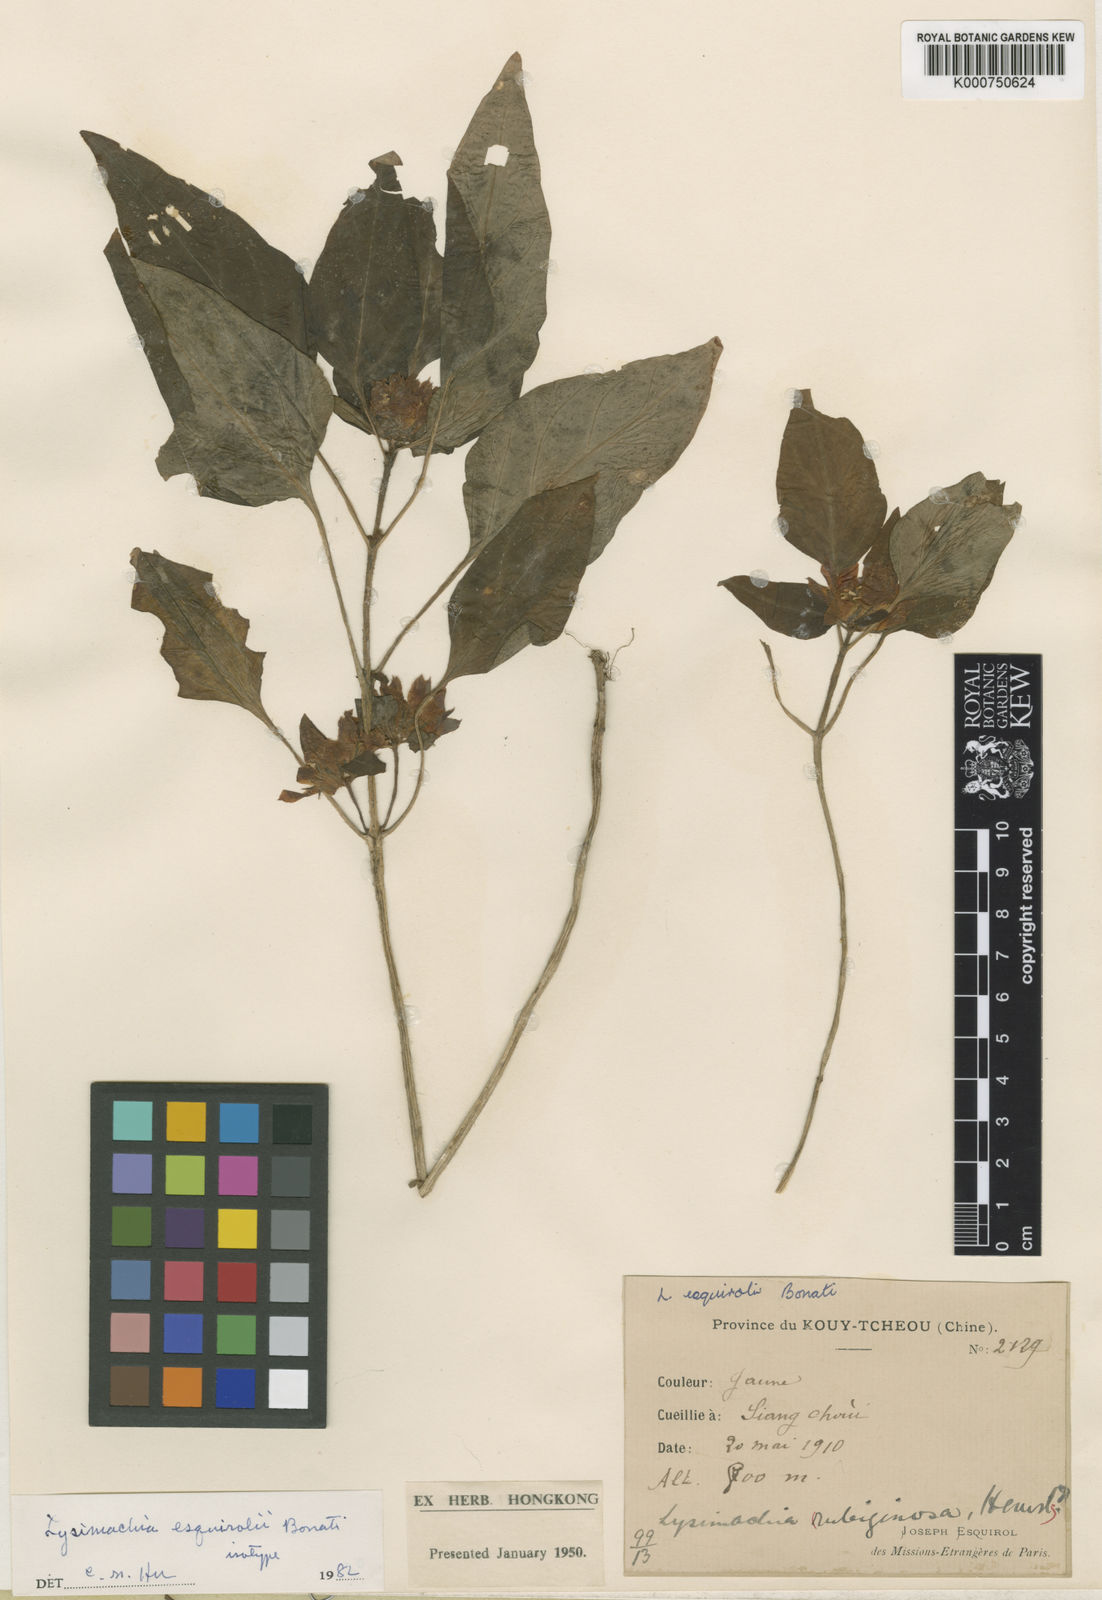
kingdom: Plantae
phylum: Tracheophyta
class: Magnoliopsida
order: Ericales
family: Primulaceae
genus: Lysimachia
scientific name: Lysimachia esquirolii
